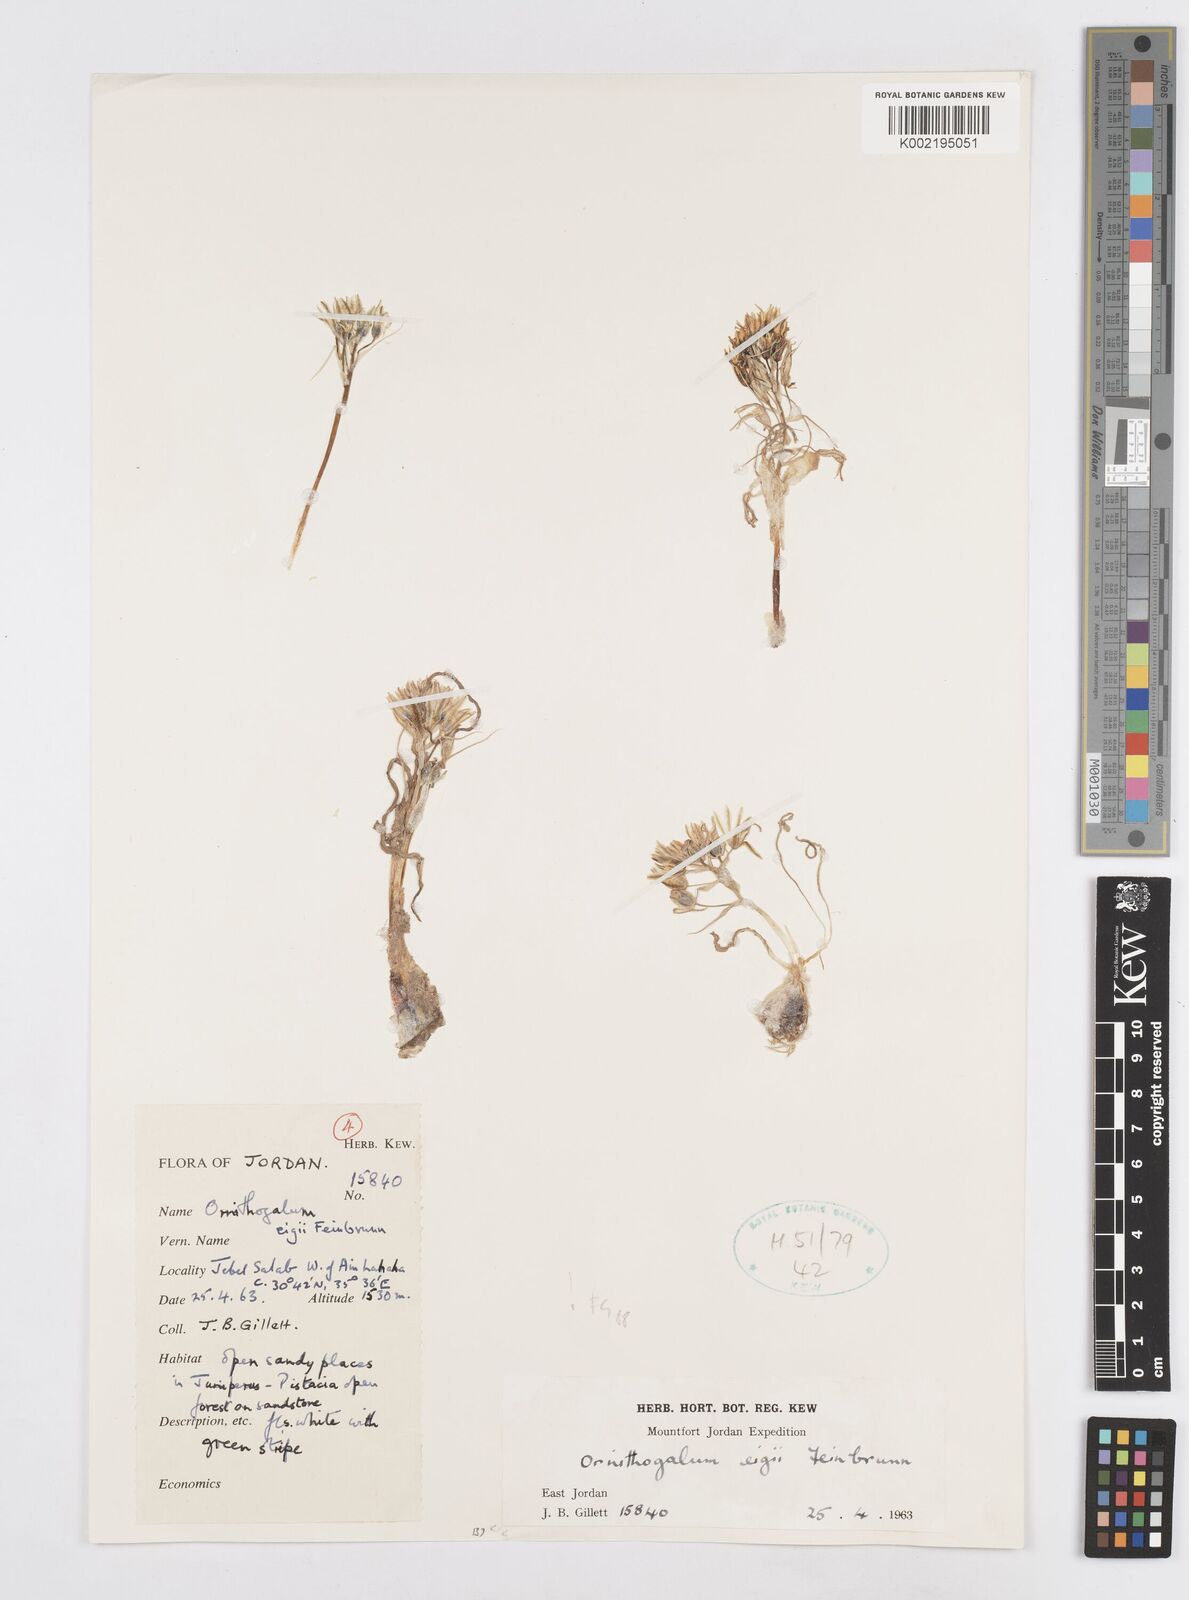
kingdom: Plantae
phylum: Tracheophyta
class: Liliopsida
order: Asparagales
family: Asparagaceae
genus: Ornithogalum
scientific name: Ornithogalum neurostegium
